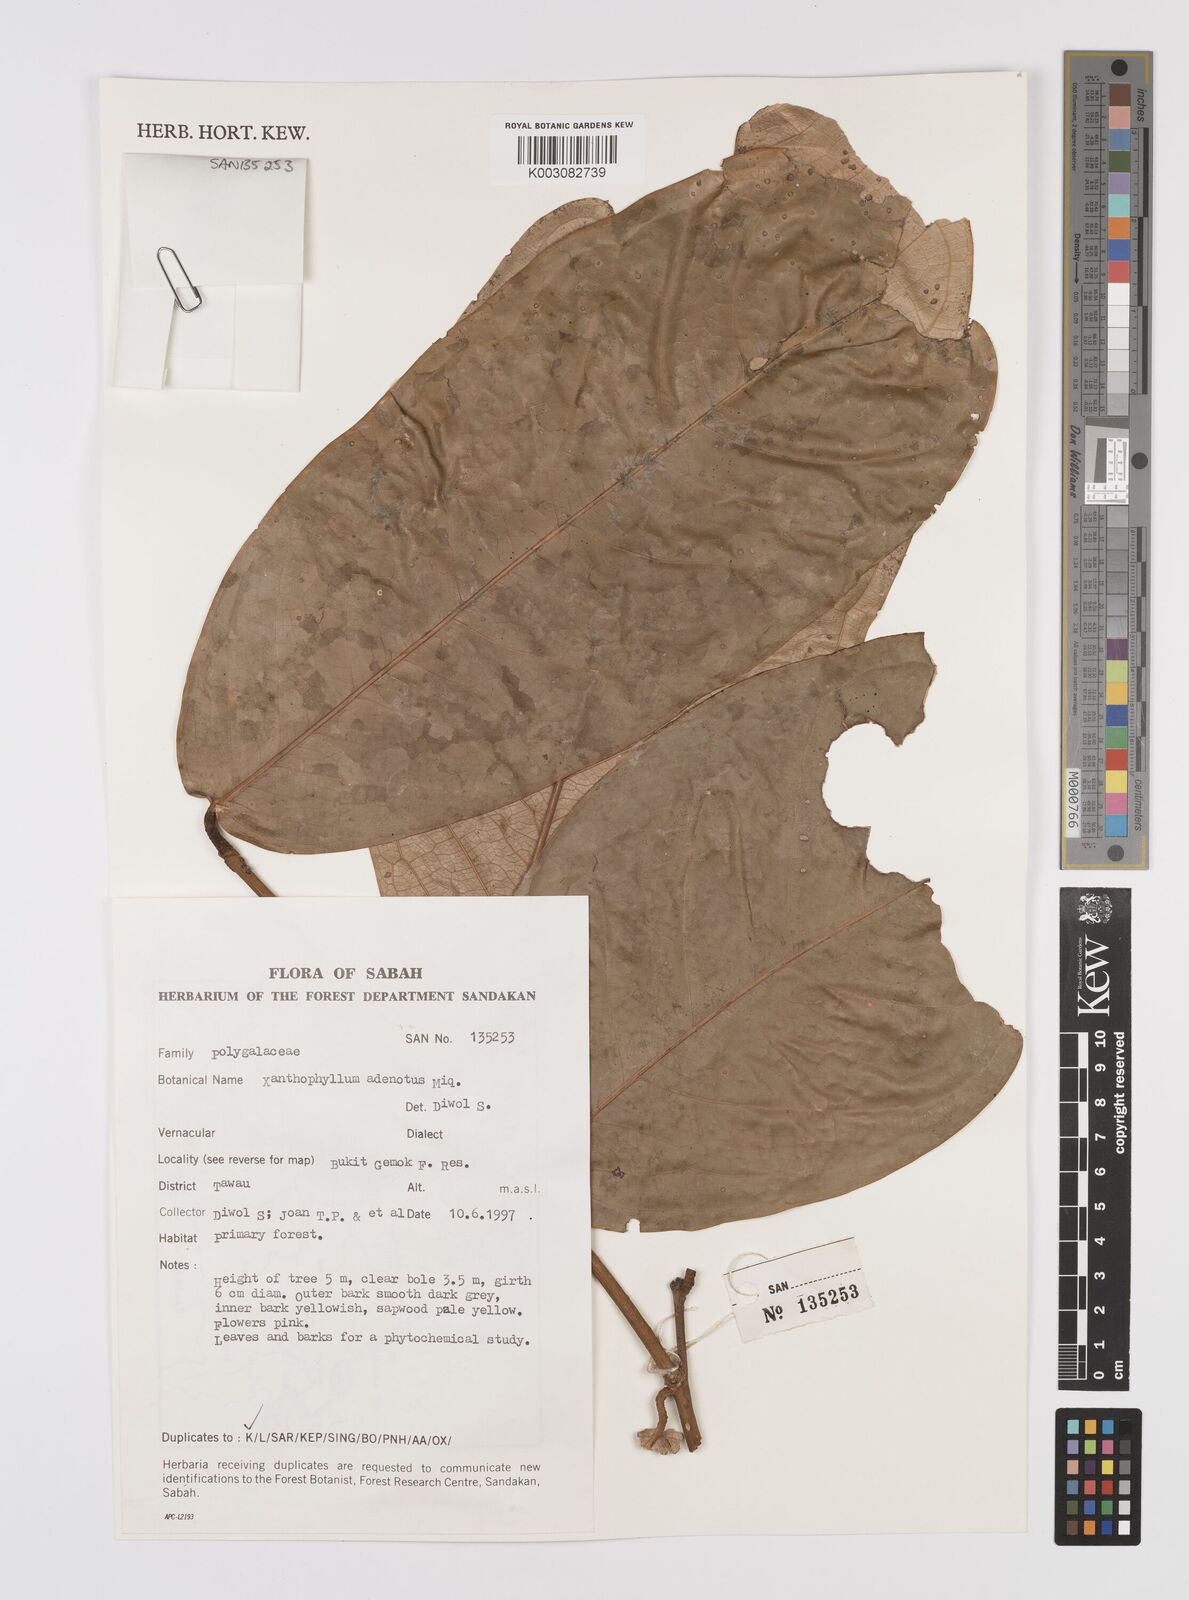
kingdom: Plantae
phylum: Tracheophyta
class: Magnoliopsida
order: Fabales
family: Polygalaceae
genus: Xanthophyllum
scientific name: Xanthophyllum adenotus
